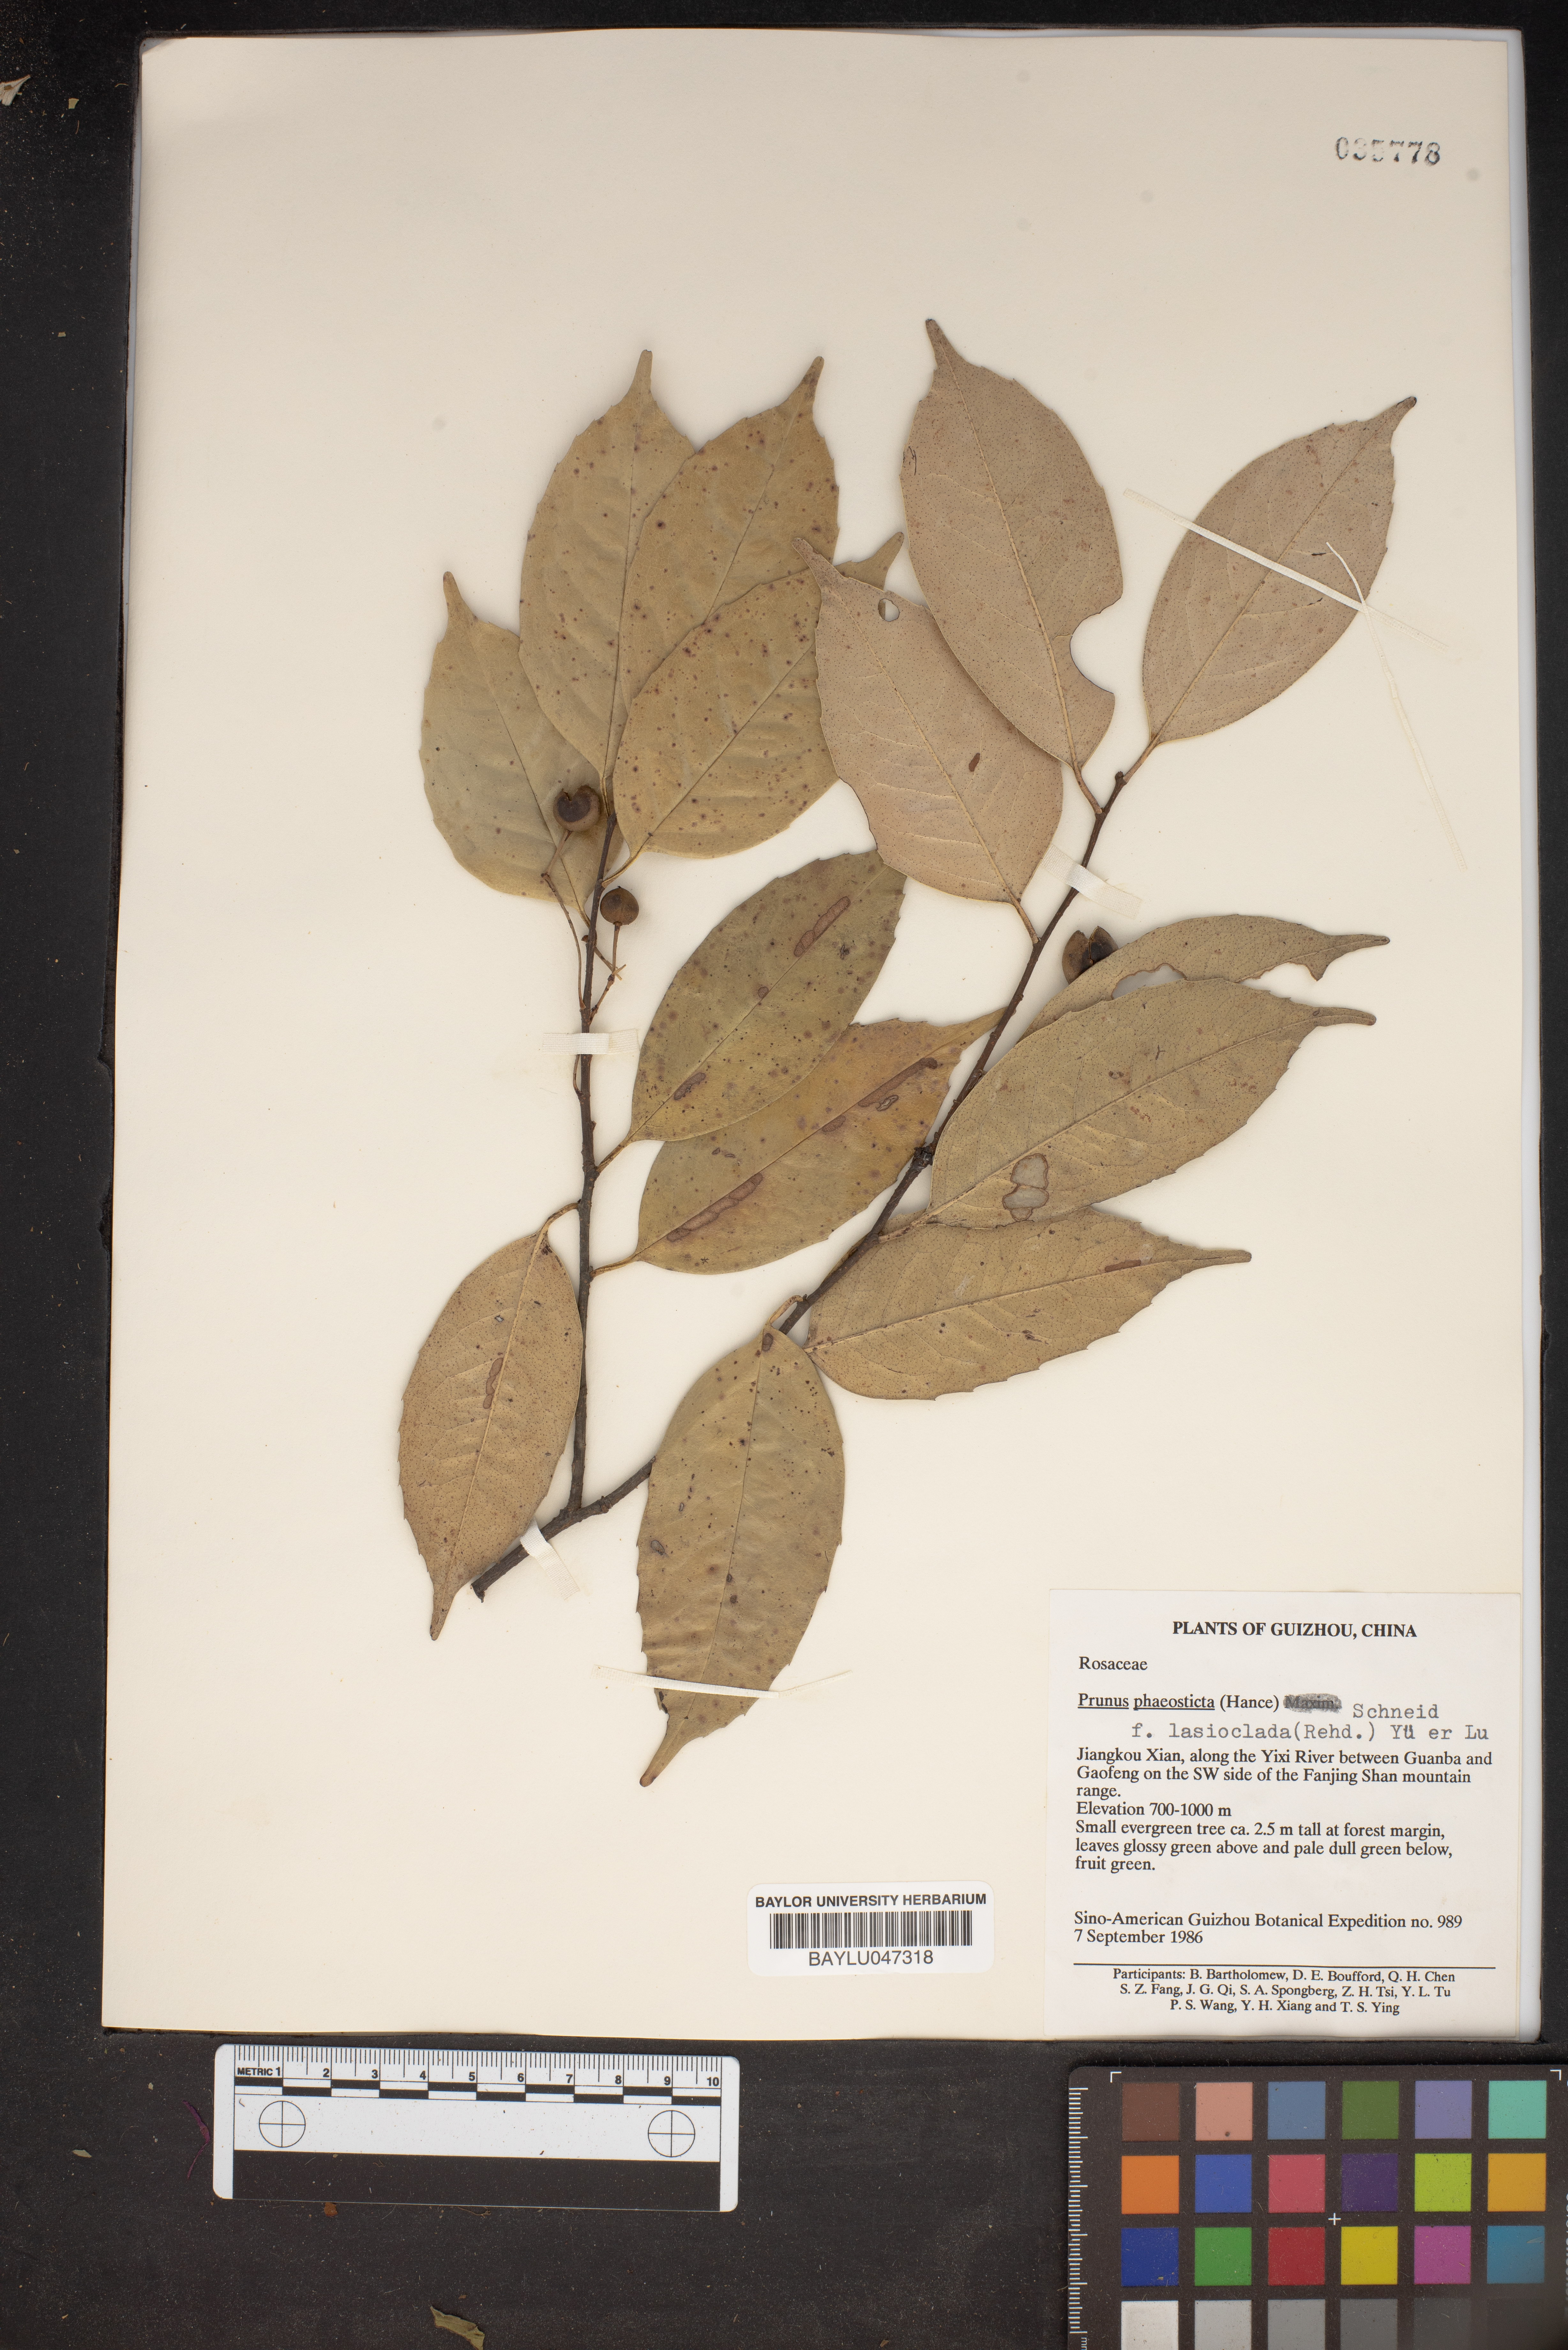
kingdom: Plantae
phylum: Tracheophyta
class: Magnoliopsida
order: Rosales
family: Rosaceae
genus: Prunus
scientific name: Prunus phaeosticta
